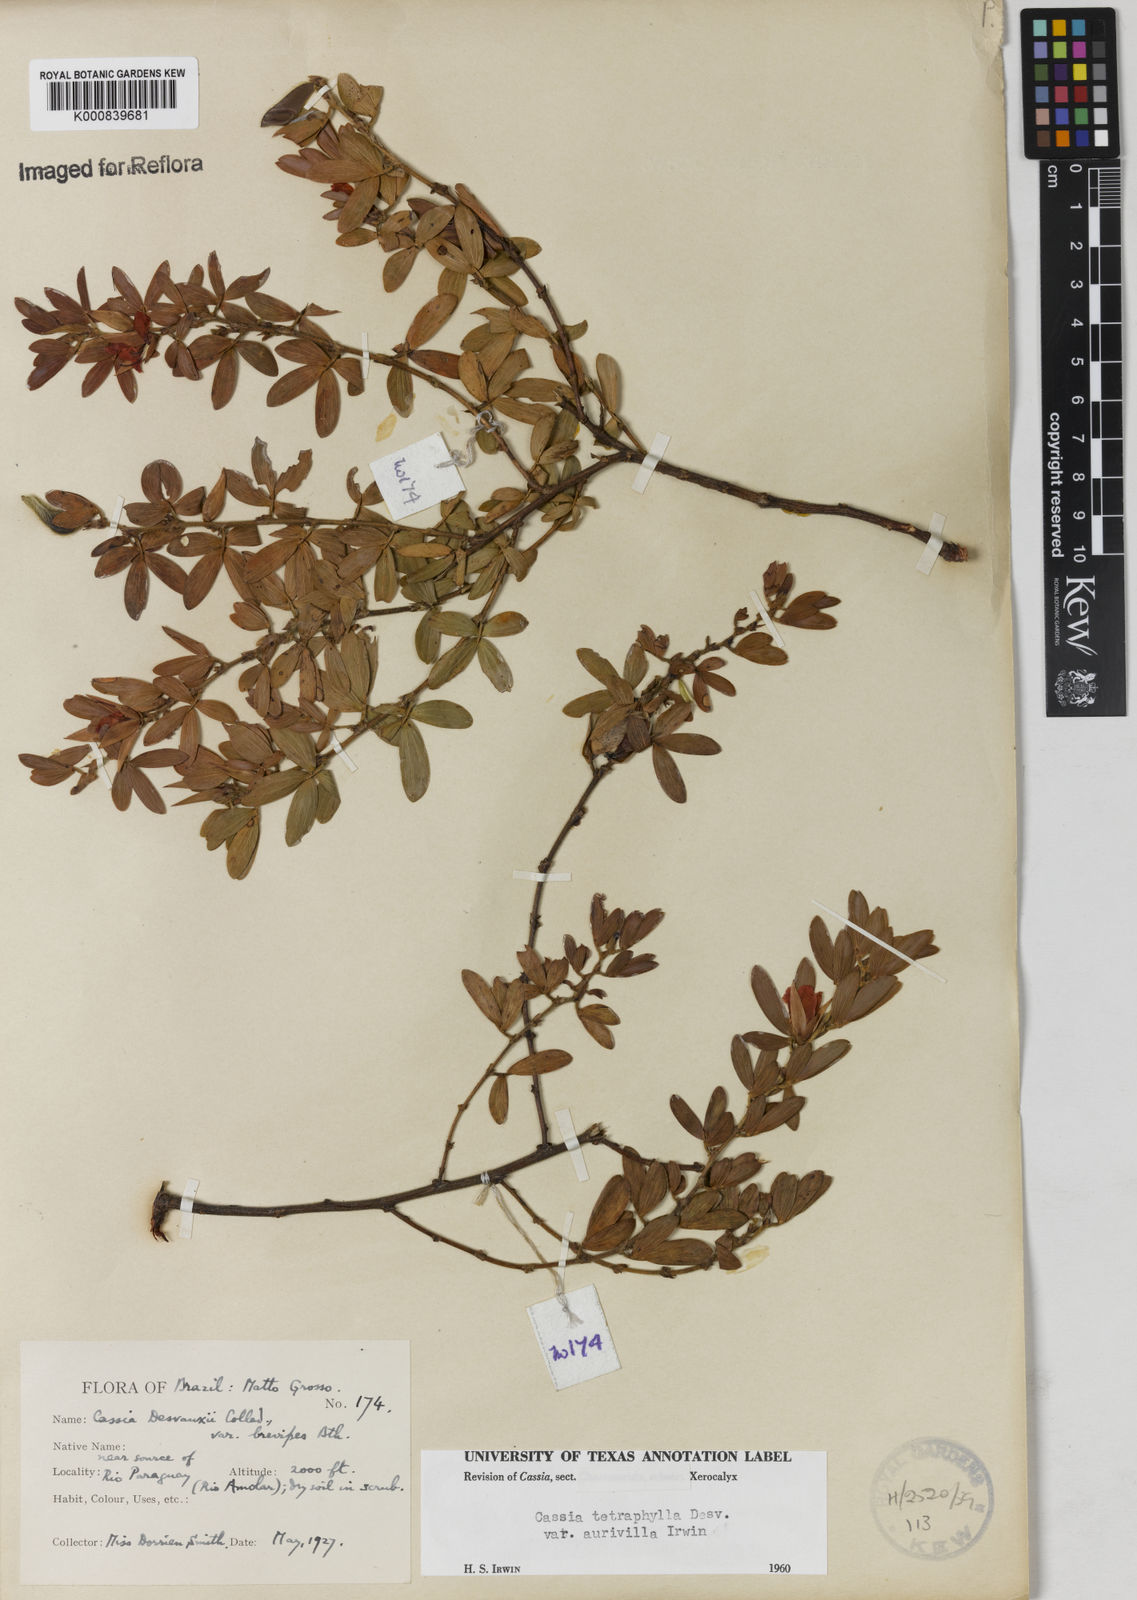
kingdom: Plantae
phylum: Tracheophyta
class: Magnoliopsida
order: Fabales
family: Fabaceae
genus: Chamaecrista
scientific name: Chamaecrista desvauxii
